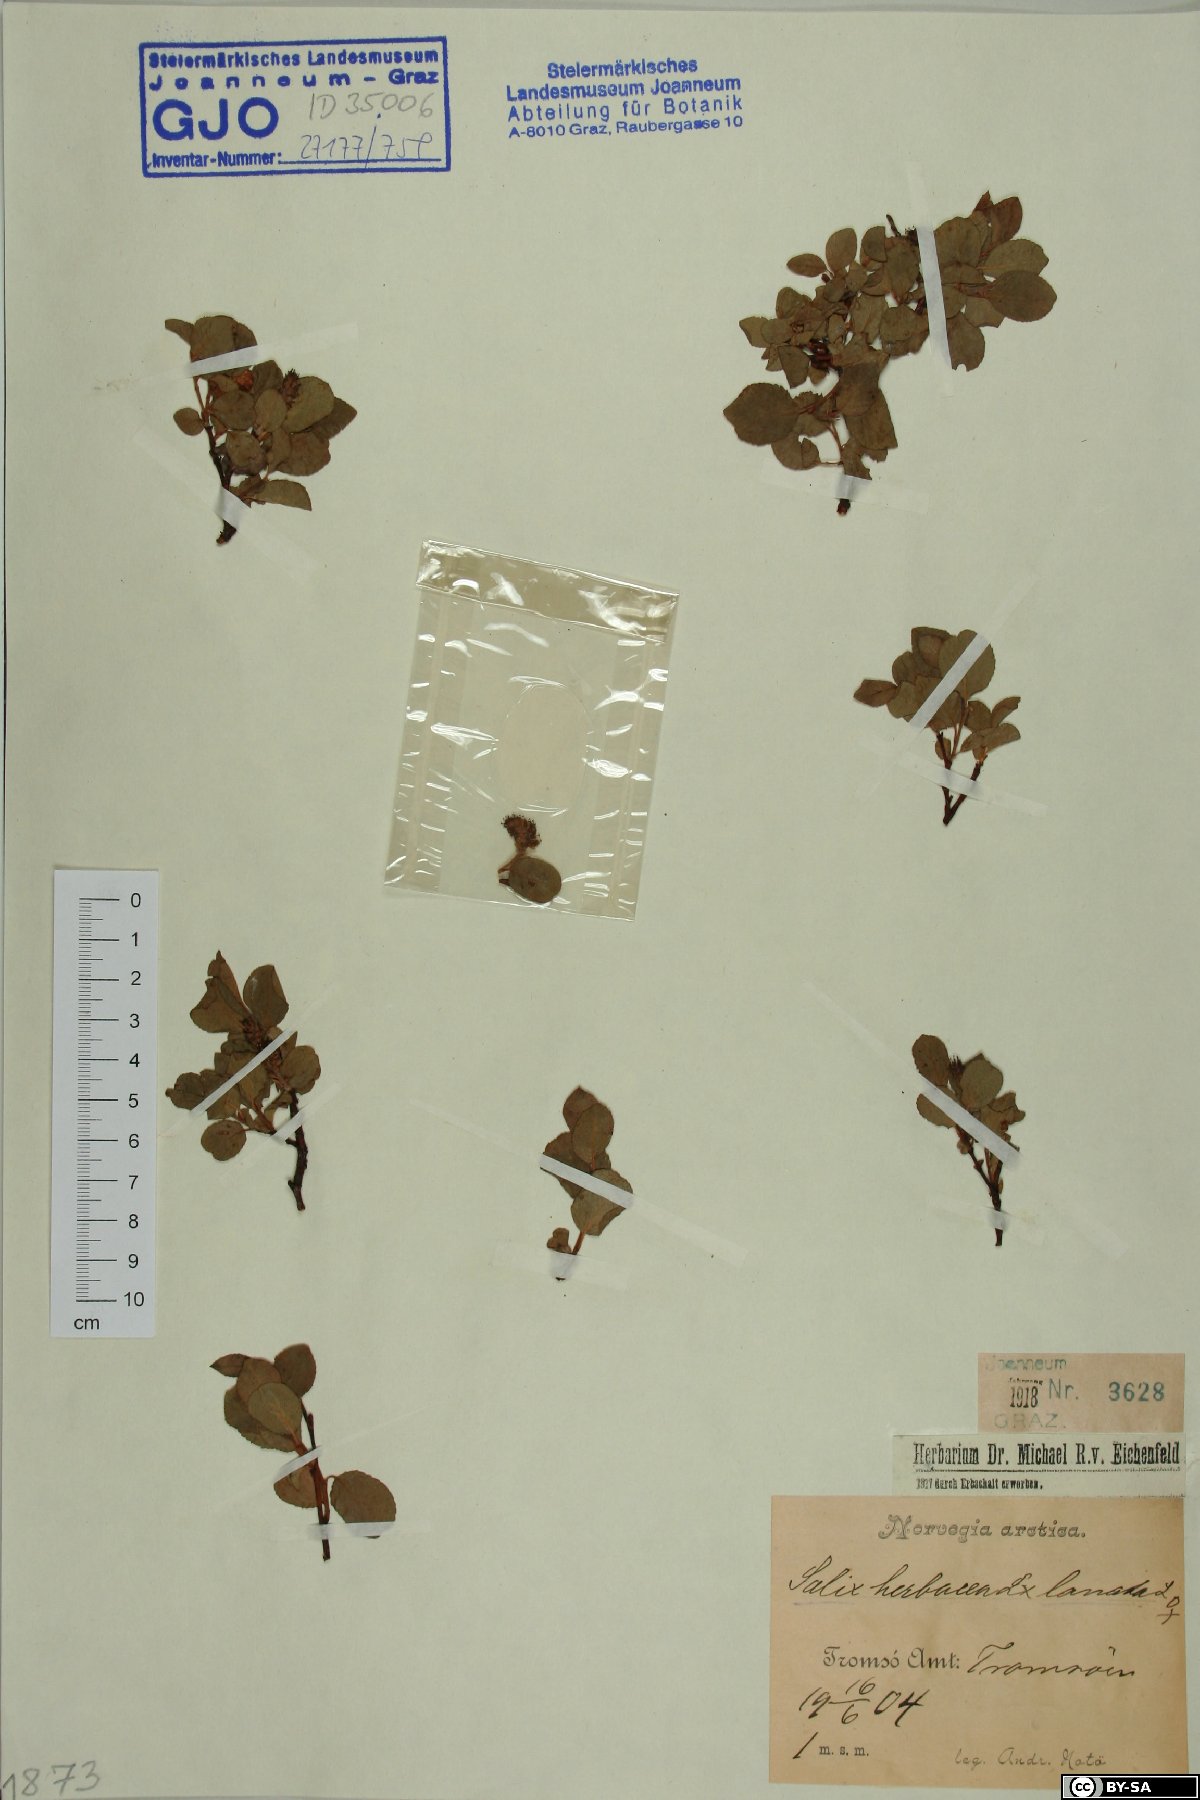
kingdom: Plantae
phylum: Tracheophyta
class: Magnoliopsida
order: Malpighiales
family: Salicaceae
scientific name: Salicaceae
